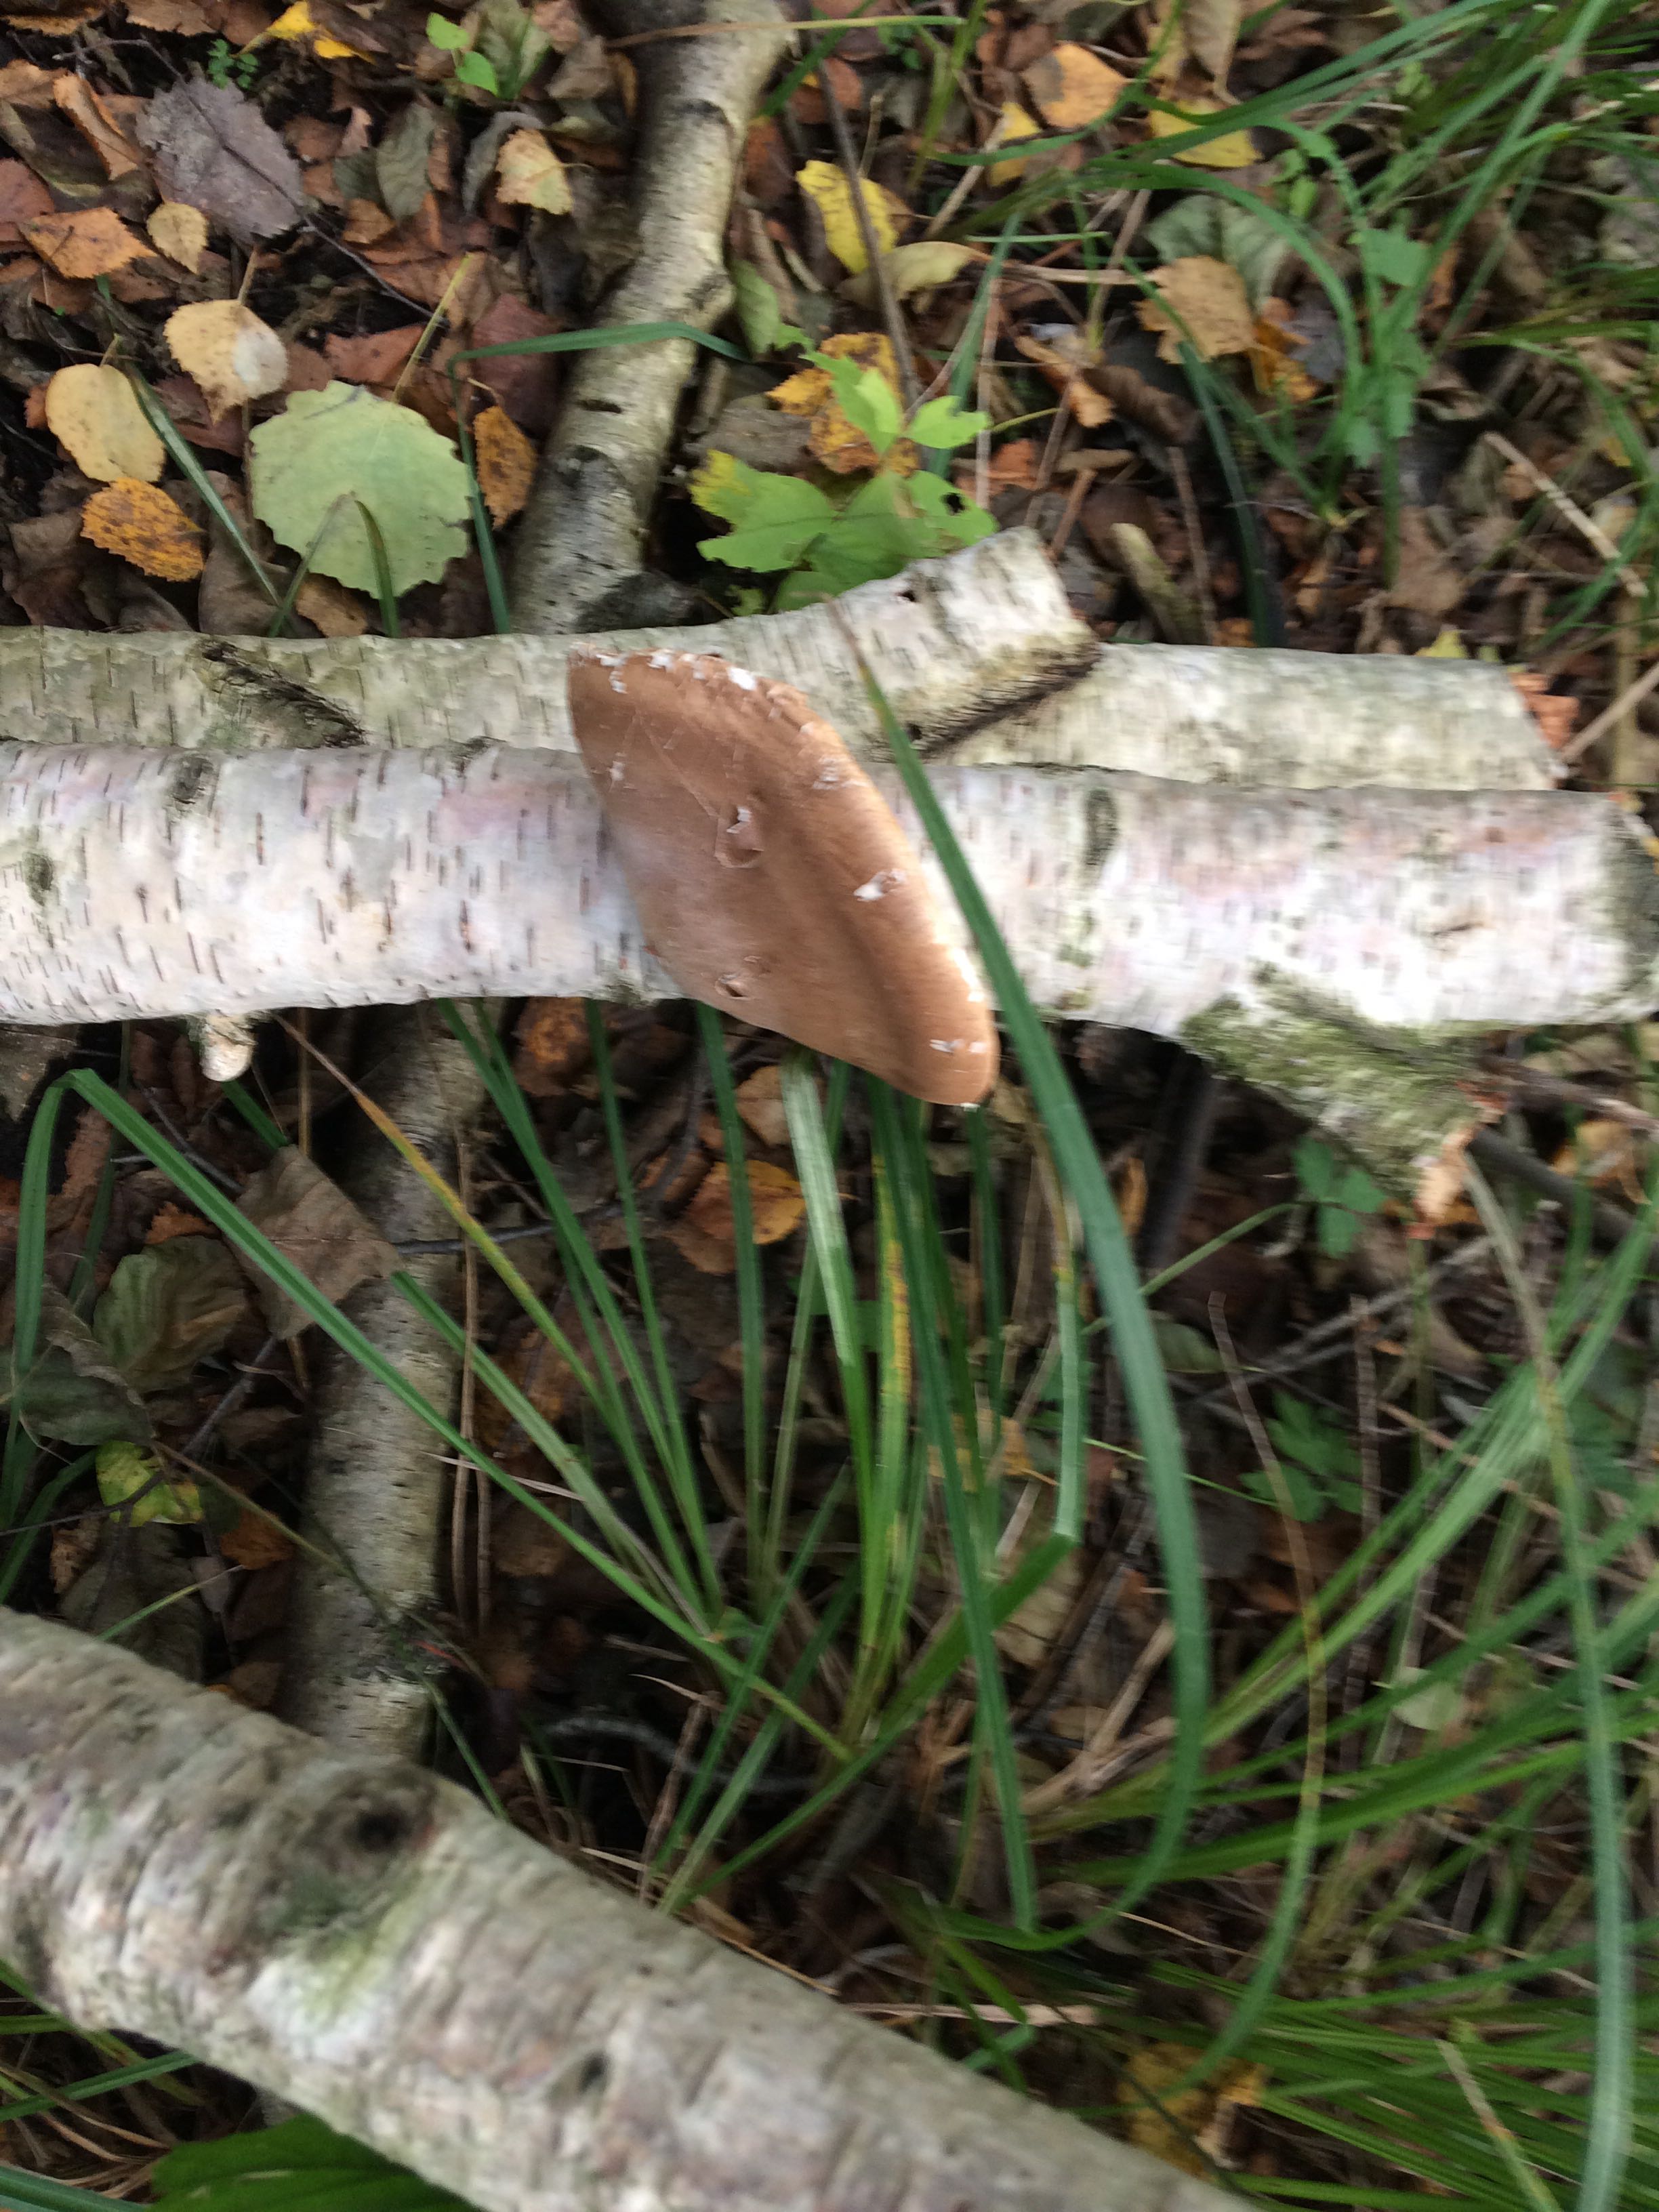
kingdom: Fungi
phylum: Basidiomycota
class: Agaricomycetes
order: Polyporales
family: Fomitopsidaceae
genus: Fomitopsis
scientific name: Fomitopsis betulina
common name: birkeporesvamp
